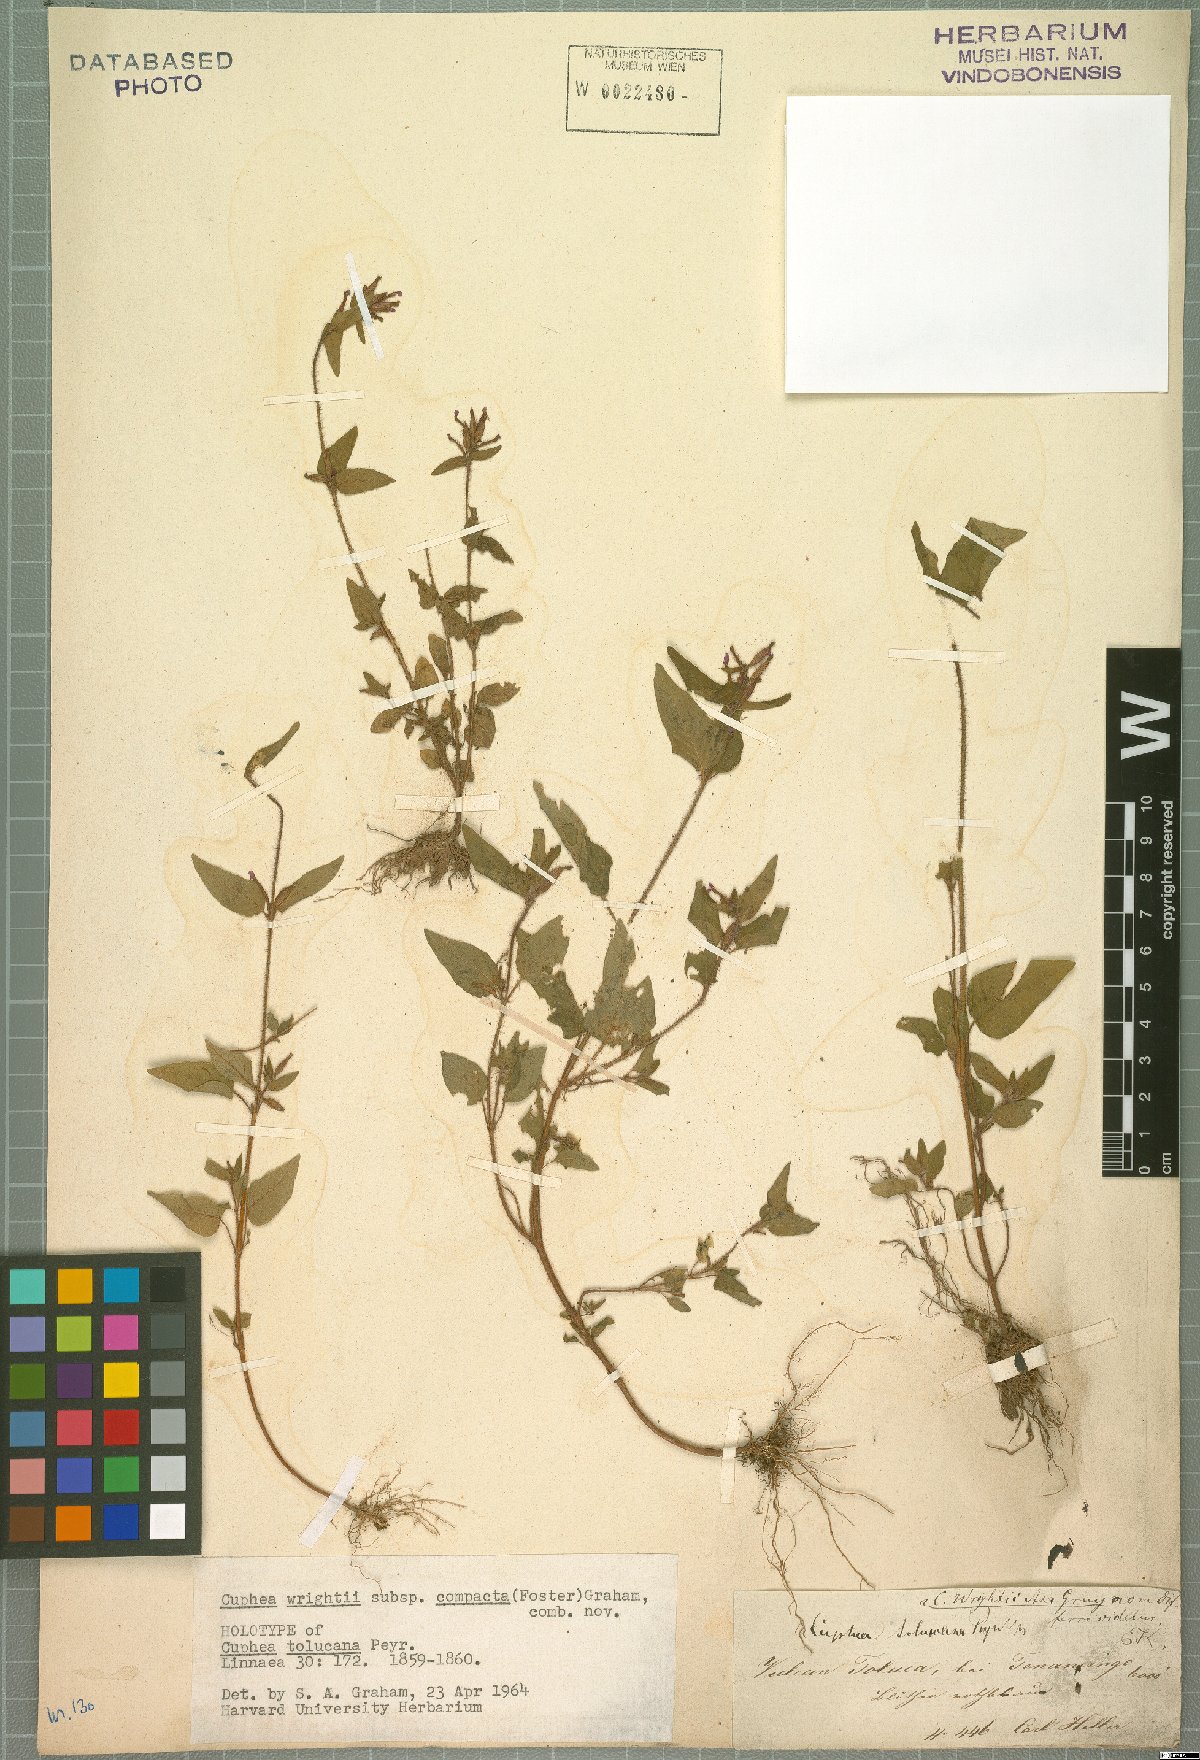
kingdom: Plantae
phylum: Tracheophyta
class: Magnoliopsida
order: Myrtales
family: Lythraceae
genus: Cuphea
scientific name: Cuphea tolucana
